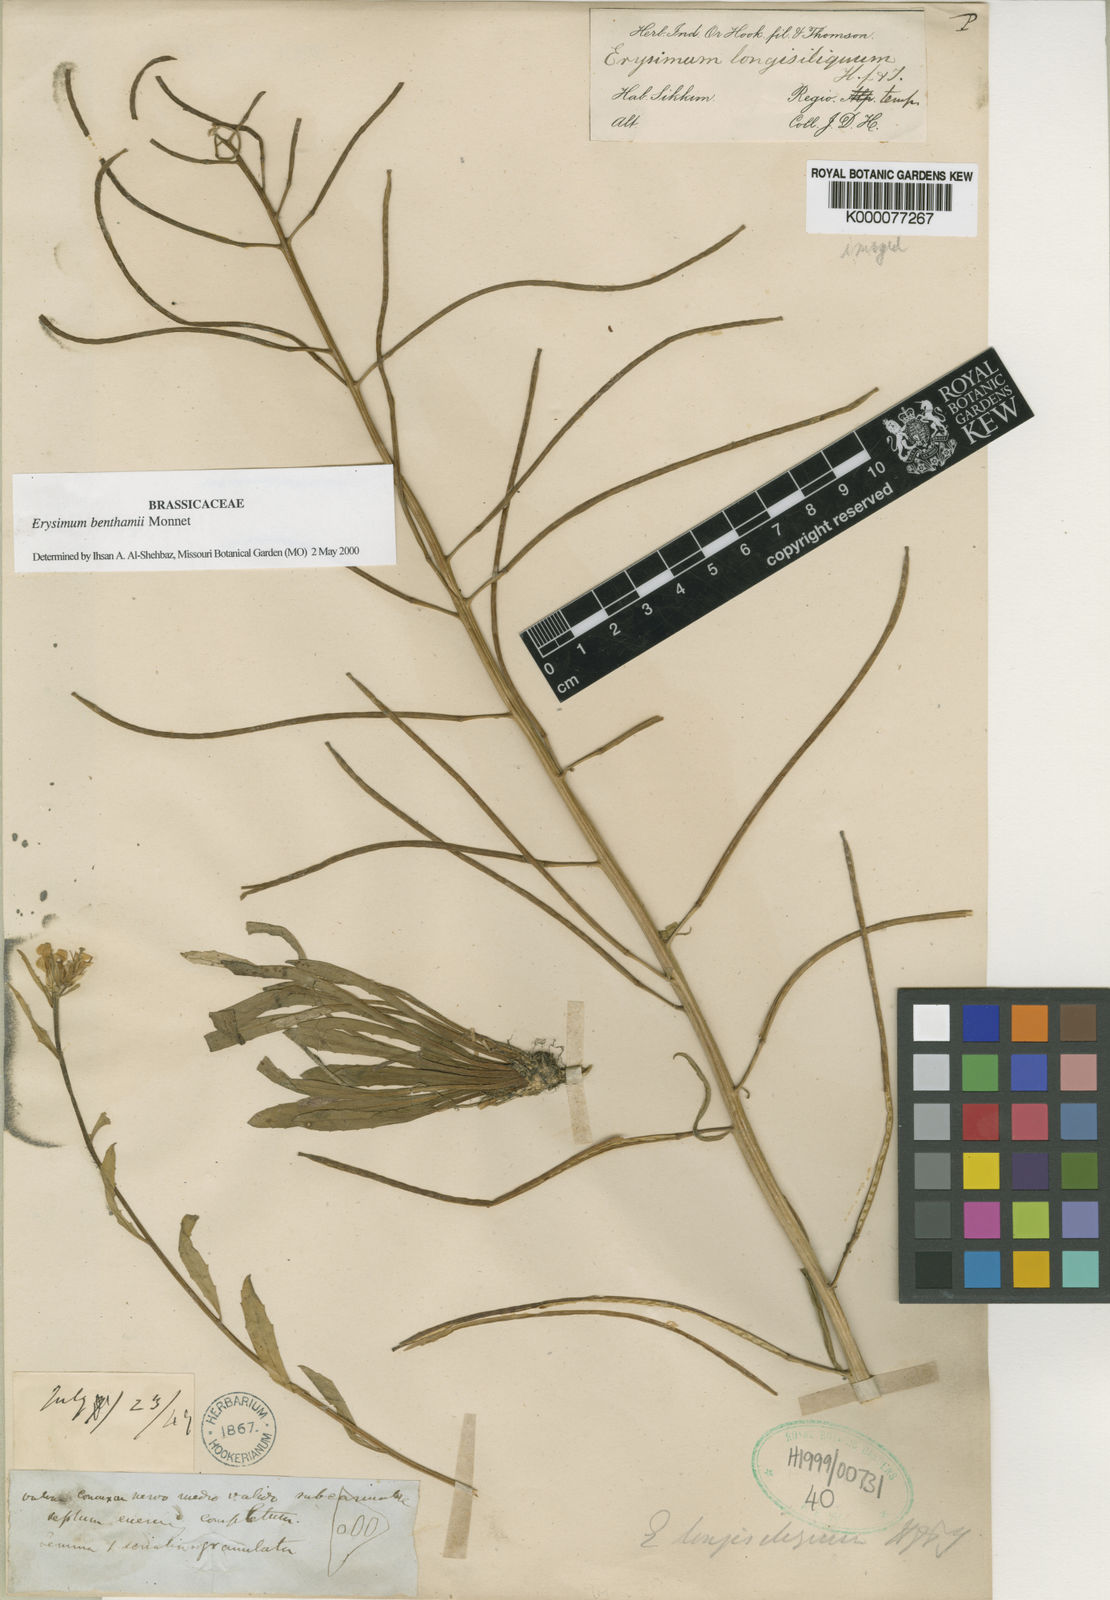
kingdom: Plantae
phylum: Tracheophyta
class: Magnoliopsida
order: Brassicales
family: Brassicaceae
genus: Erysimum
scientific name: Erysimum pachycarpum
